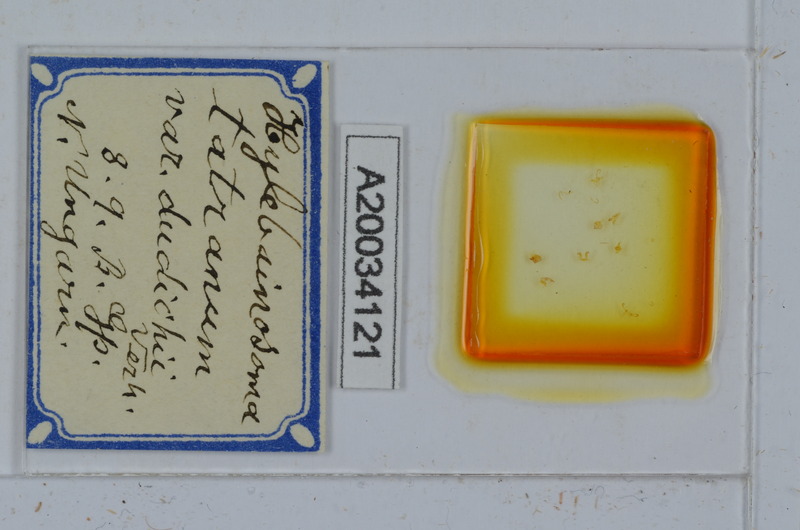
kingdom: Animalia
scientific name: Animalia
